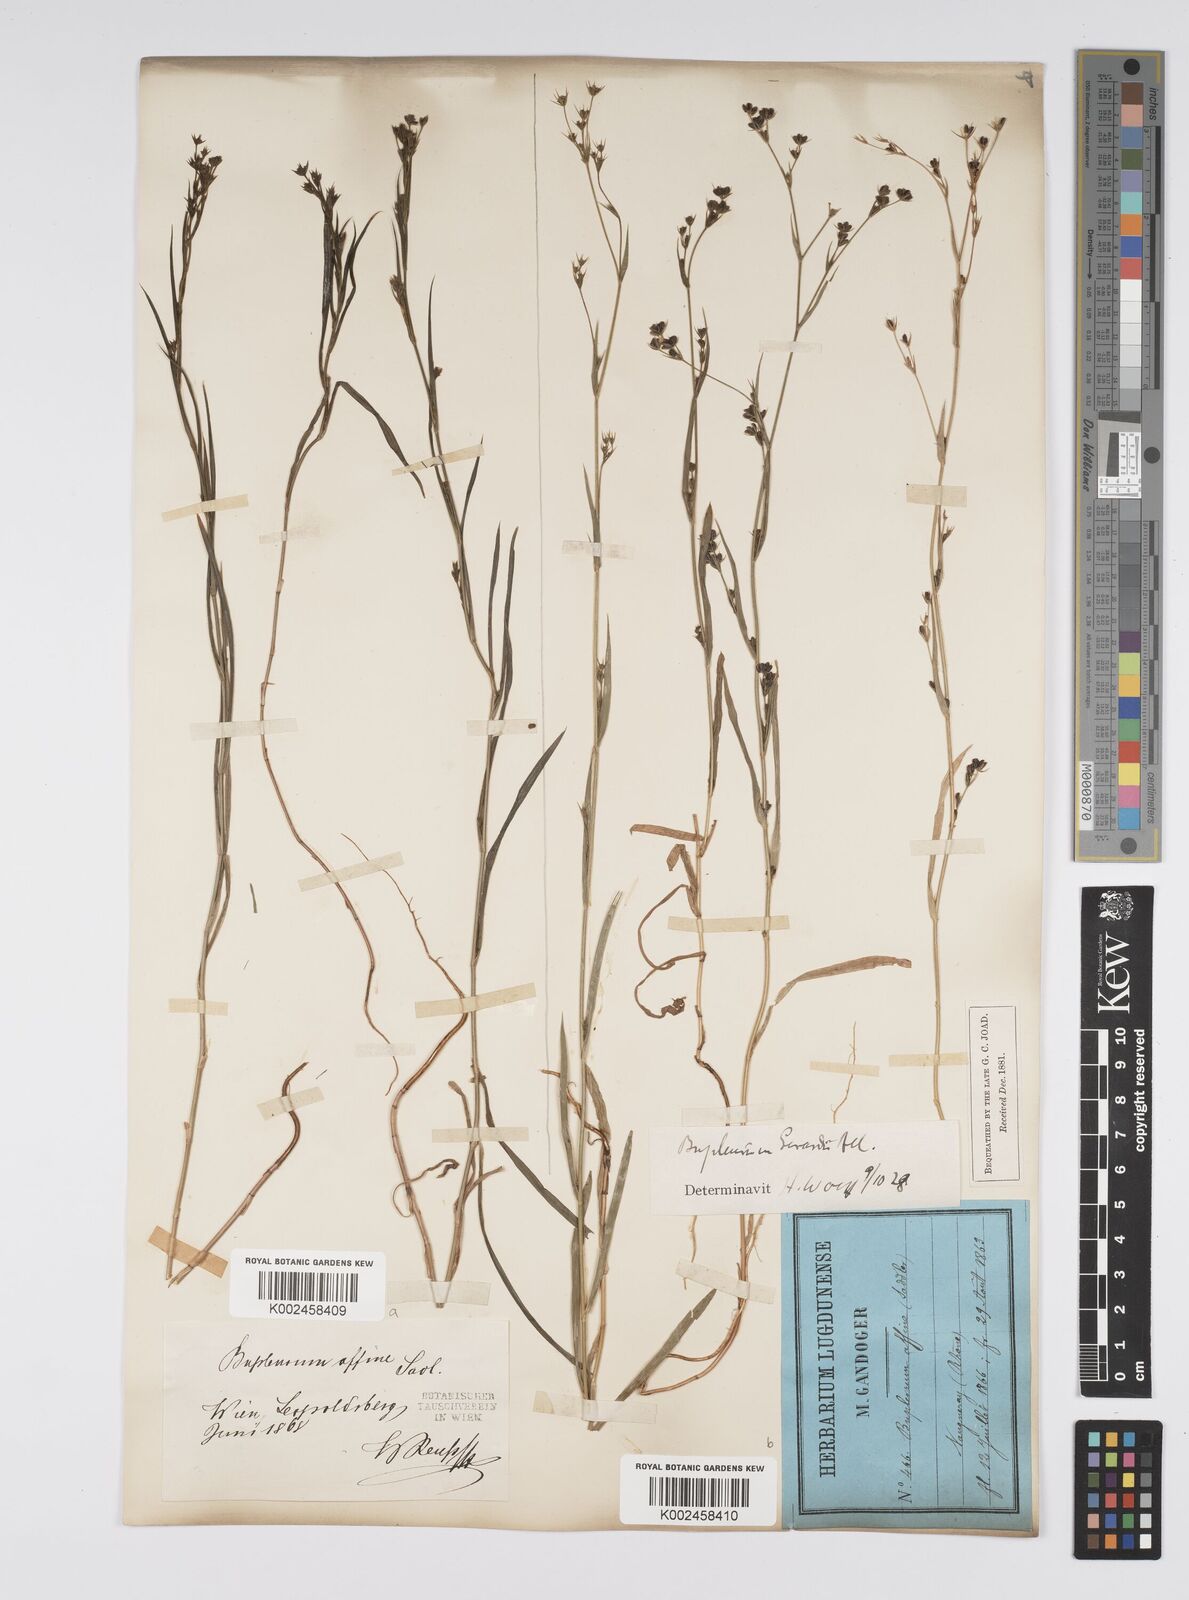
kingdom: Plantae
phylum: Tracheophyta
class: Magnoliopsida
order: Apiales
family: Apiaceae
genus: Bupleurum
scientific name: Bupleurum affine
